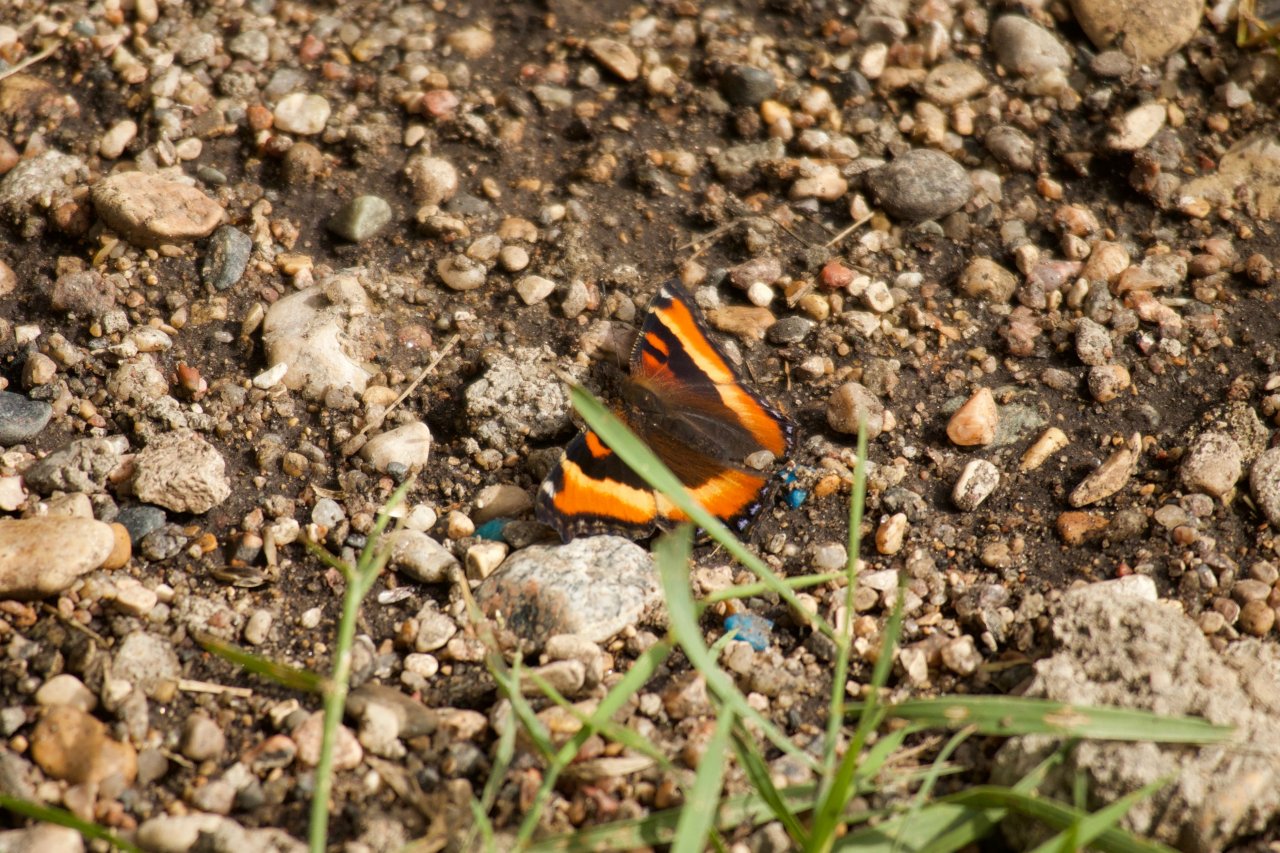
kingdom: Animalia
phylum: Arthropoda
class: Insecta
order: Lepidoptera
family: Nymphalidae
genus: Aglais
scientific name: Aglais milberti
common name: Milbert's Tortoiseshell
